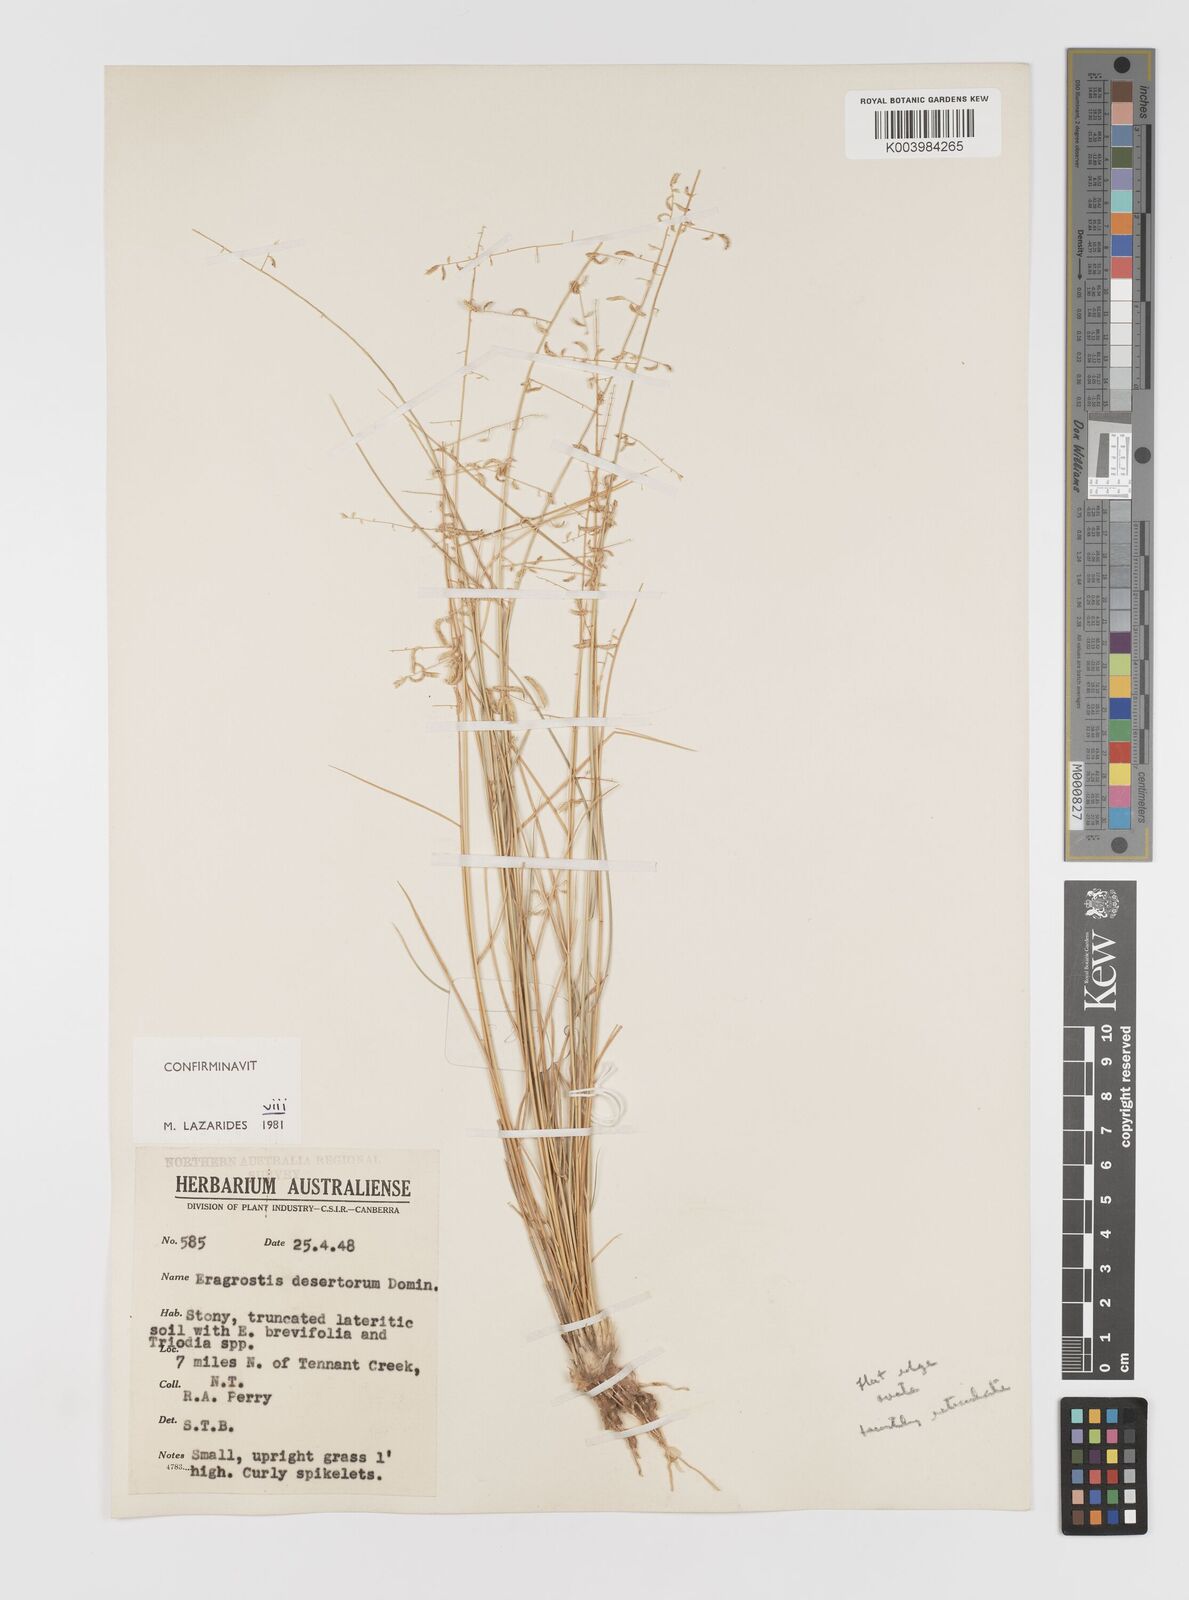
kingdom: Plantae
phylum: Tracheophyta
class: Liliopsida
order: Poales
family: Poaceae
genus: Eragrostis
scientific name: Eragrostis desertorum
